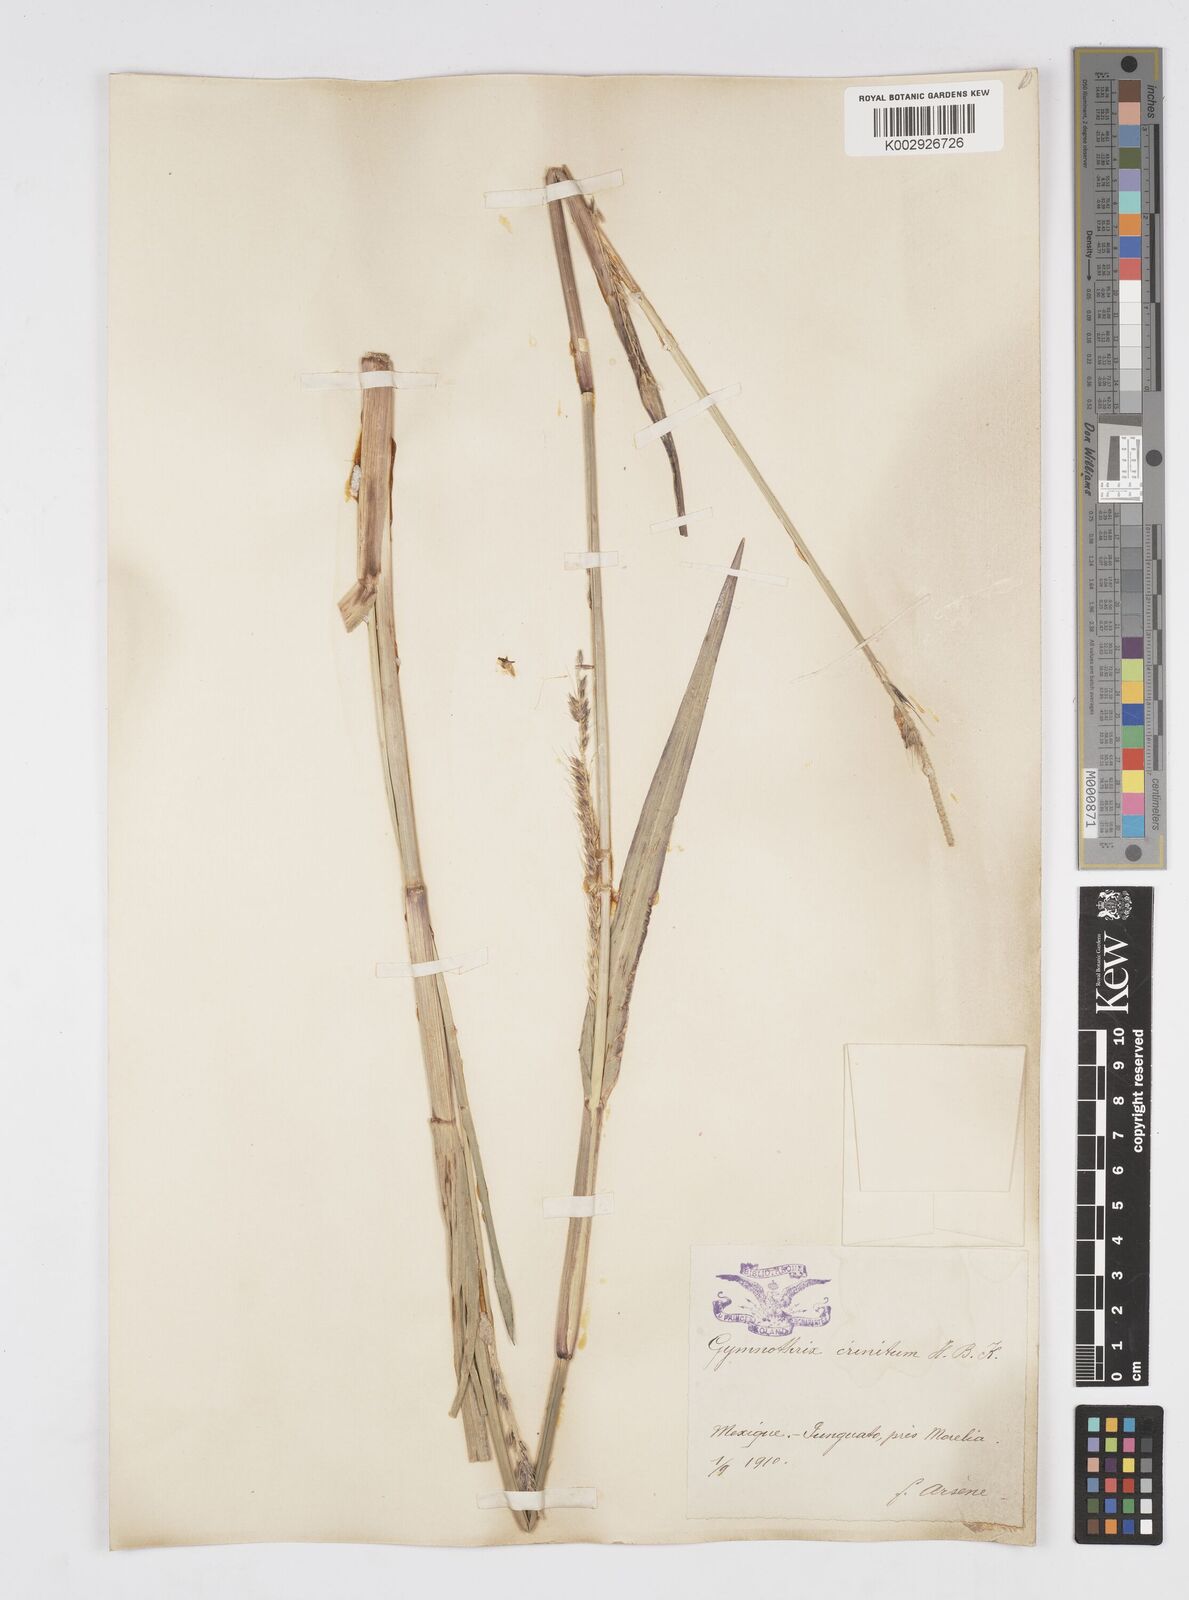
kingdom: Plantae
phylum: Tracheophyta
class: Liliopsida
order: Poales
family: Poaceae
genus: Cenchrus
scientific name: Cenchrus michoacanus
